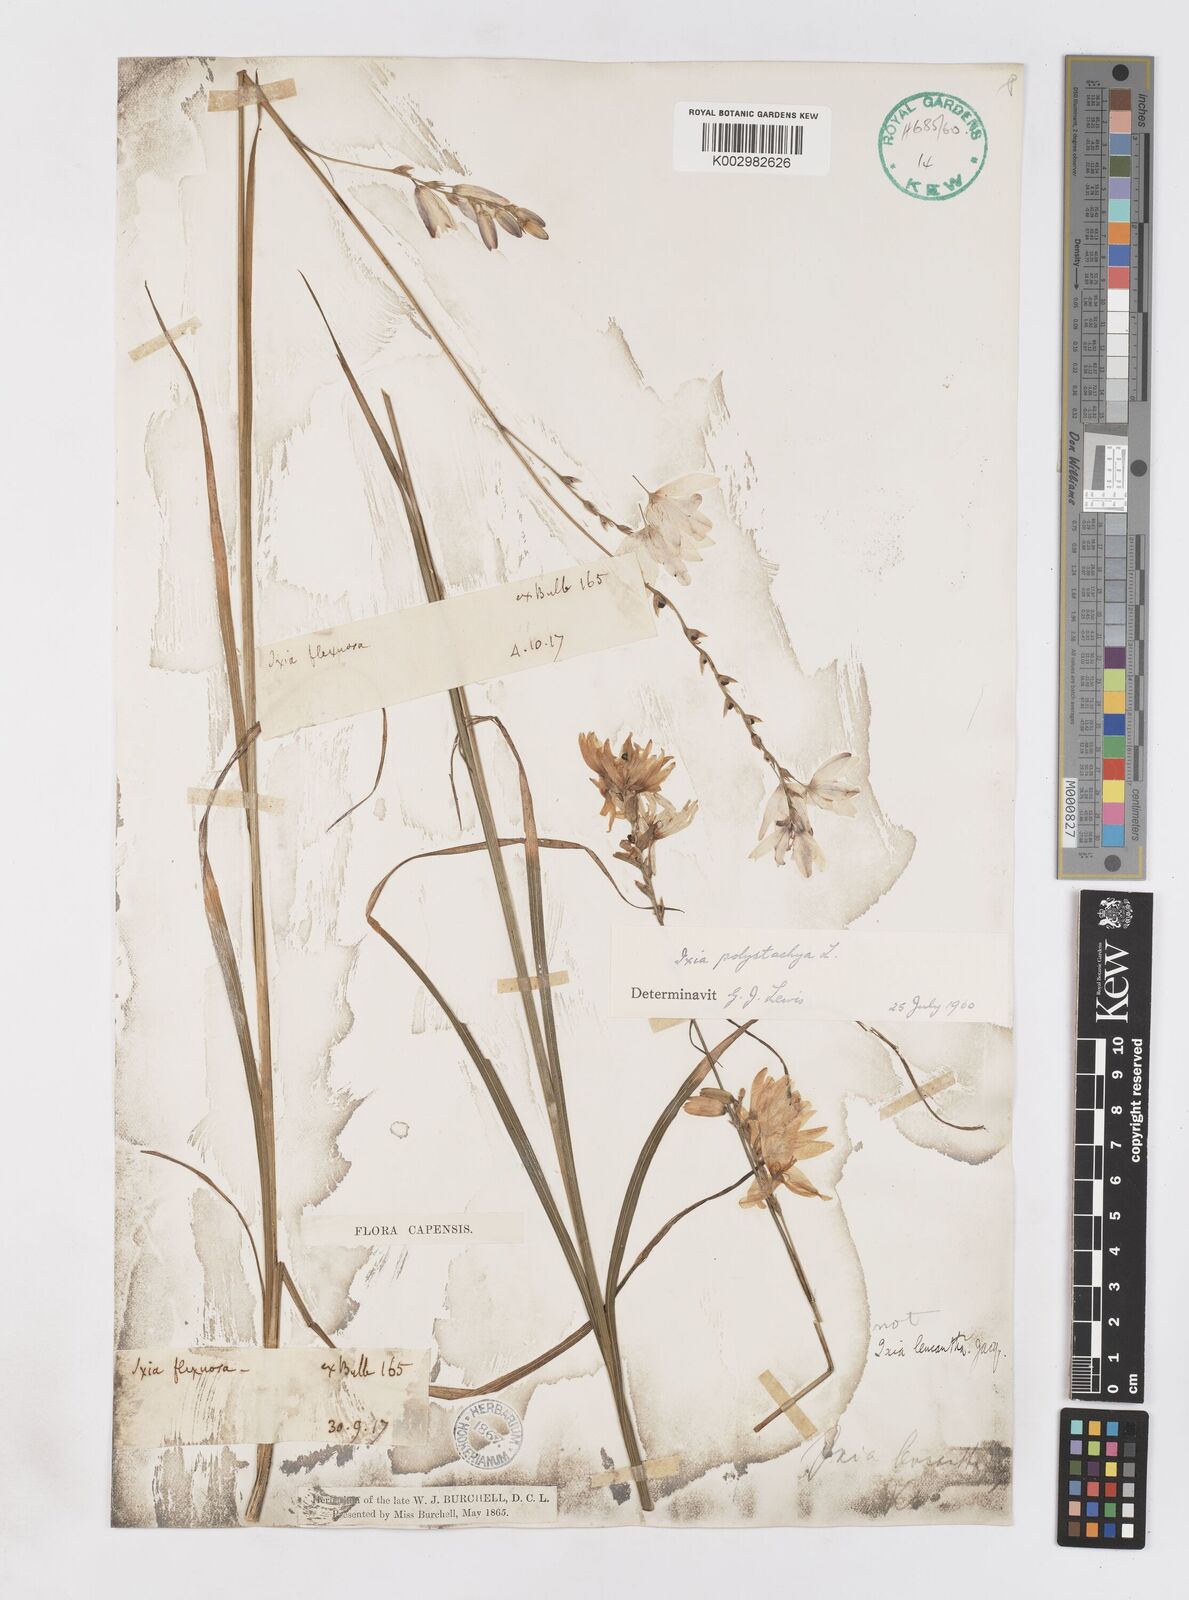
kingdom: Plantae
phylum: Tracheophyta
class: Liliopsida
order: Asparagales
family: Iridaceae
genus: Ixia
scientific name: Ixia polystachya
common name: White-and-yellow-flower cornlily
